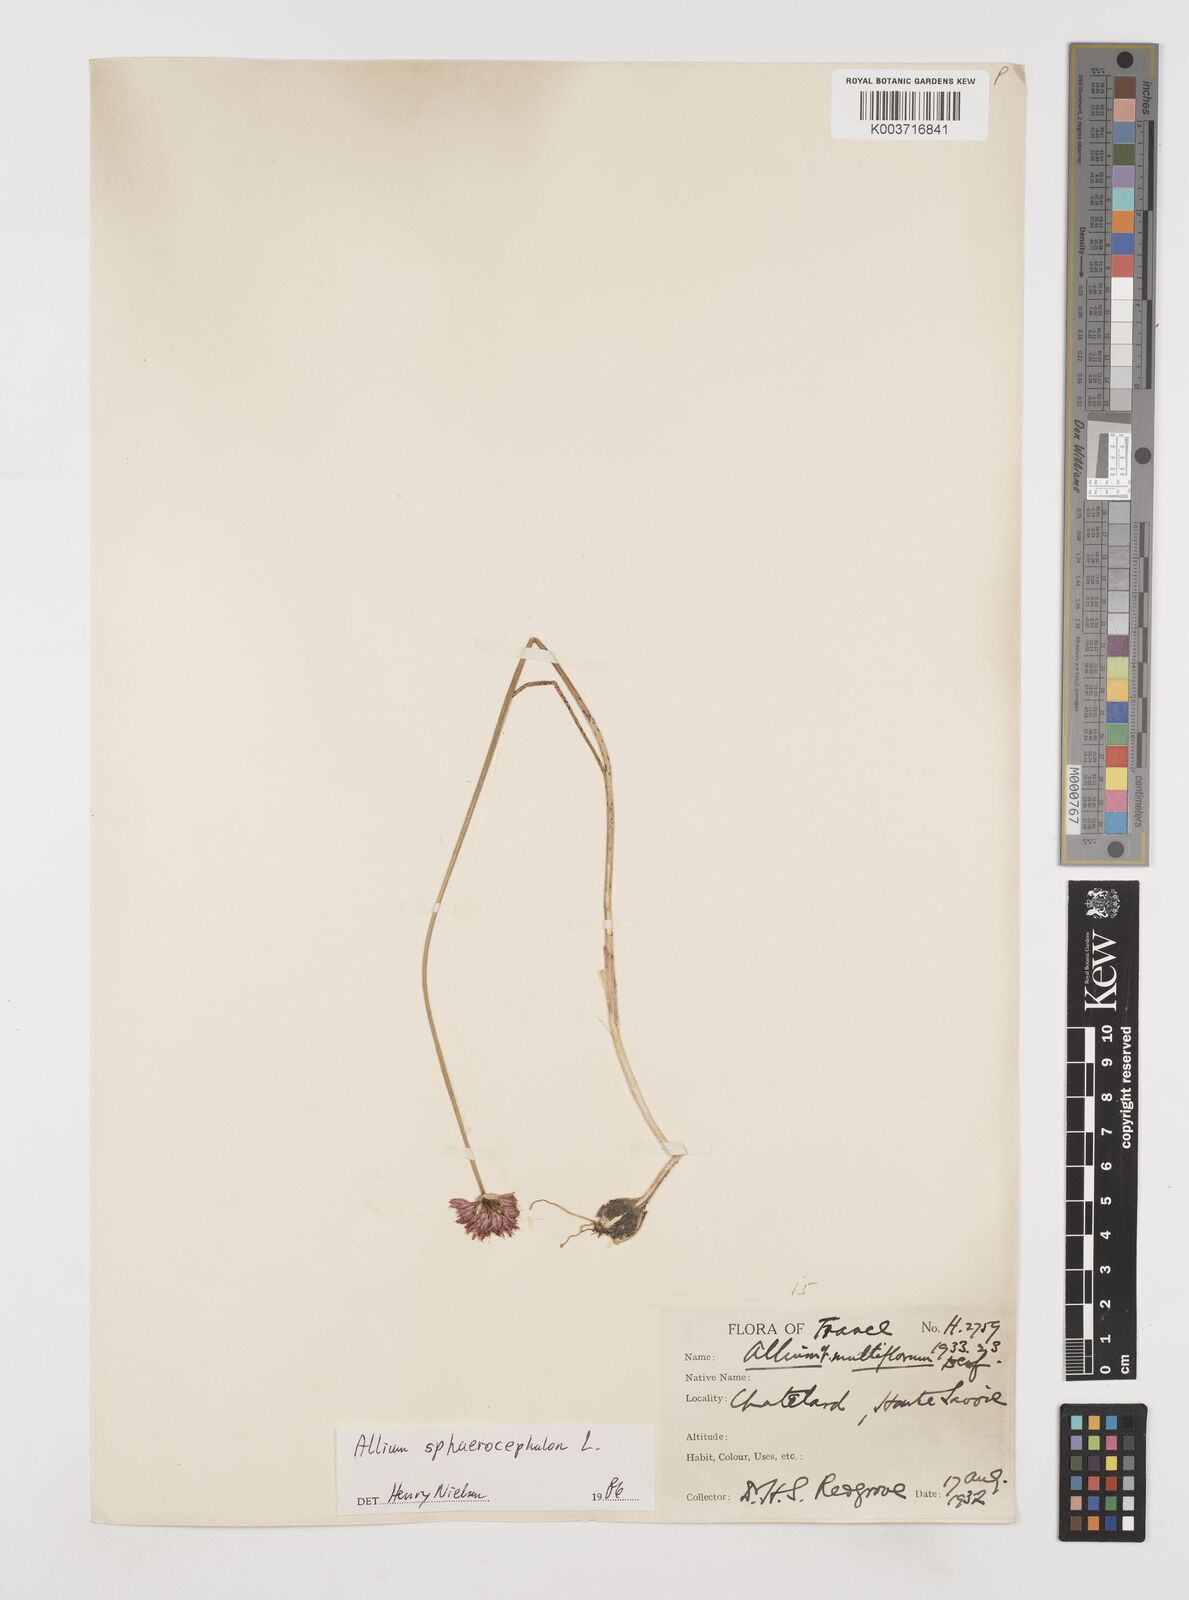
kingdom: Plantae
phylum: Tracheophyta
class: Liliopsida
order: Asparagales
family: Amaryllidaceae
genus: Allium
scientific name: Allium sphaerocephalon
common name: Round-headed leek
